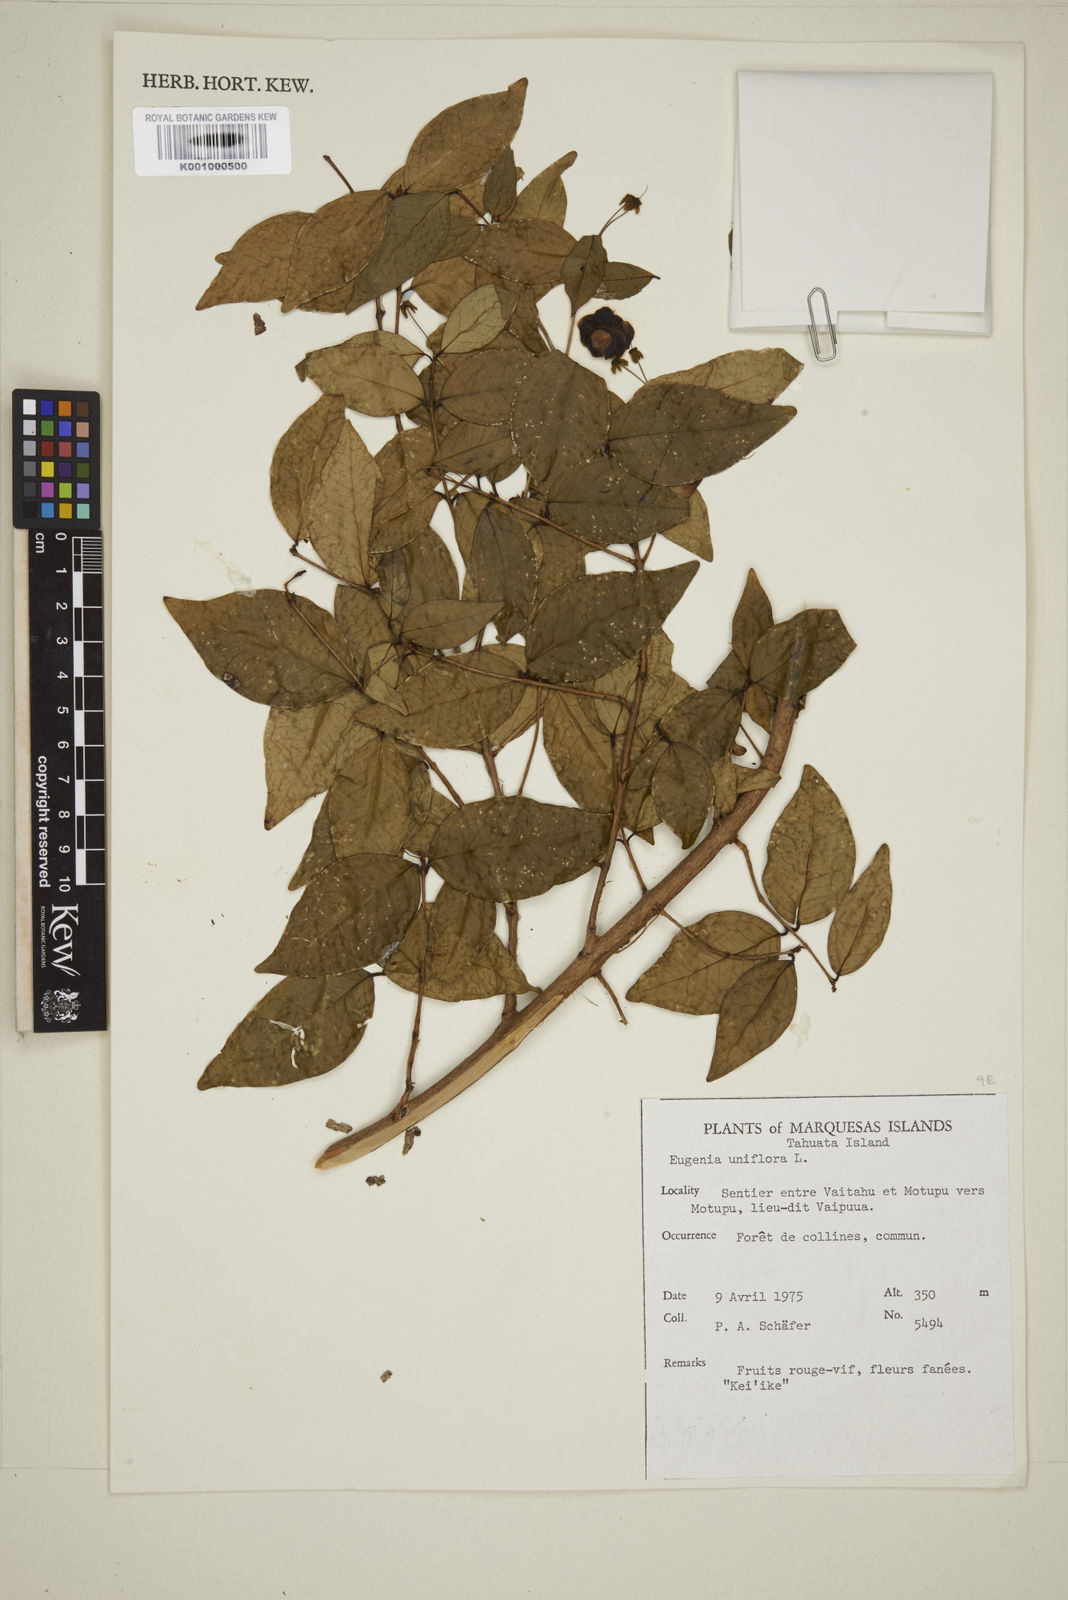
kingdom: Plantae
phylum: Tracheophyta
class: Magnoliopsida
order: Myrtales
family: Myrtaceae
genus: Eugenia
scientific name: Eugenia uniflora
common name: Surinam cherry
